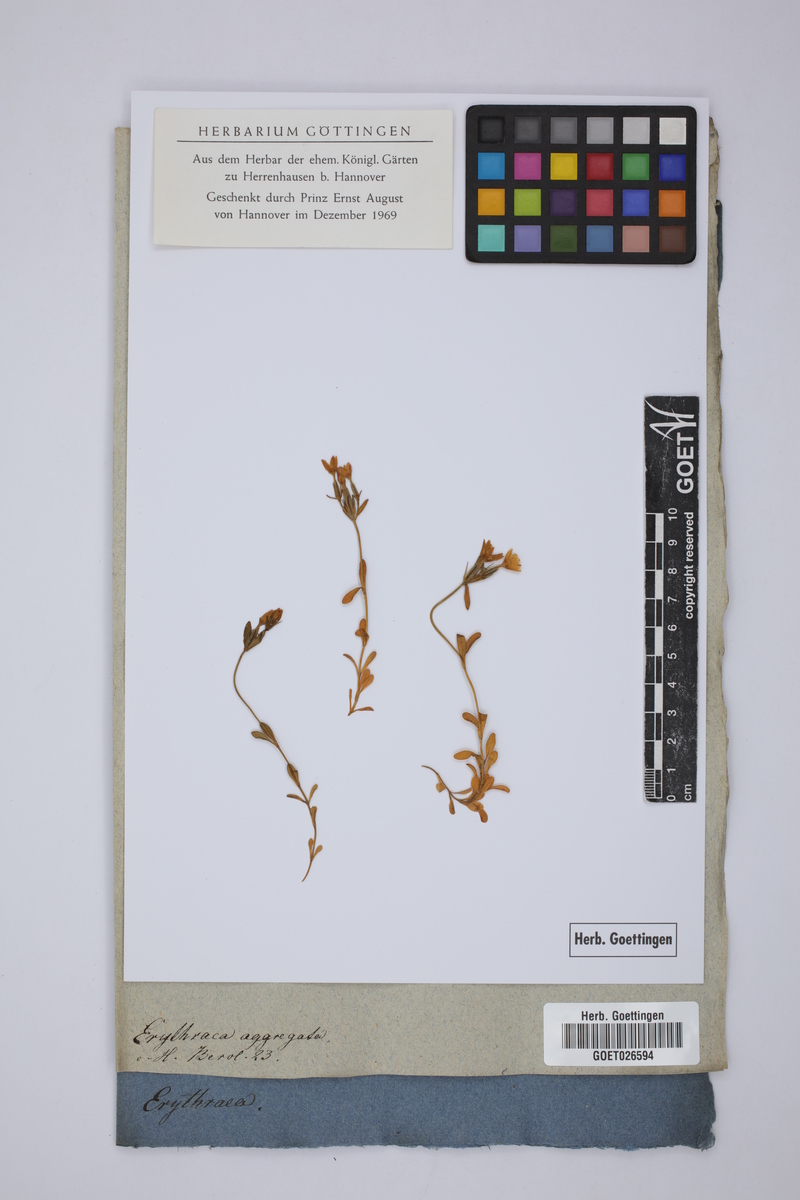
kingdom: Plantae
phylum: Tracheophyta
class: Magnoliopsida
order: Gentianales
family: Gentianaceae
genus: Centaurium
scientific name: Centaurium quadrifolium
